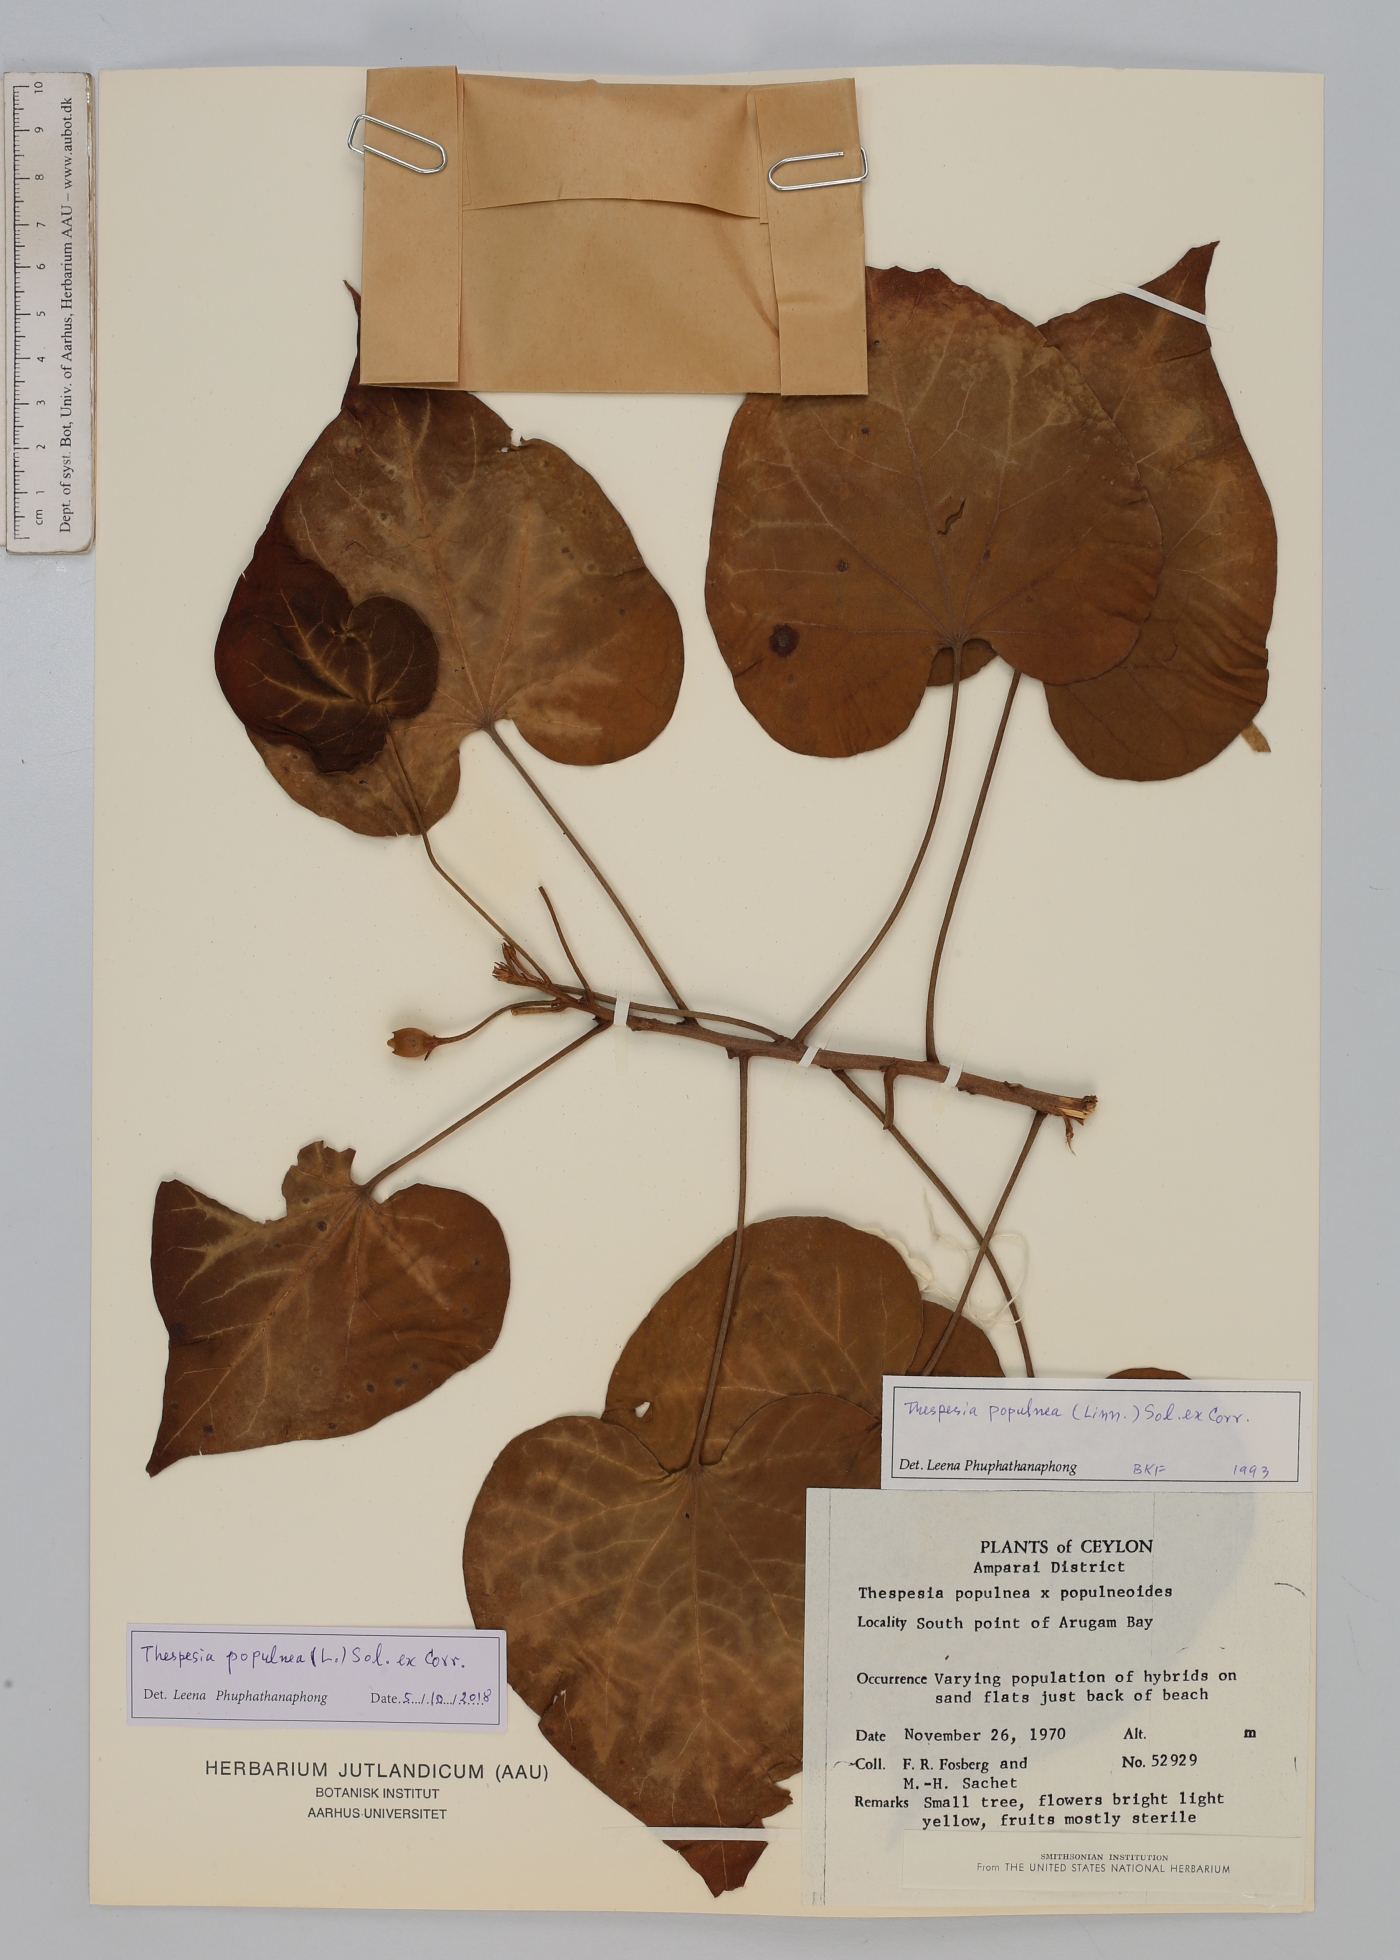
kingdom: Plantae
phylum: Tracheophyta
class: Magnoliopsida
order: Malvales
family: Malvaceae
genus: Thespesia
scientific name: Thespesia populnea
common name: Seaside mahoe
